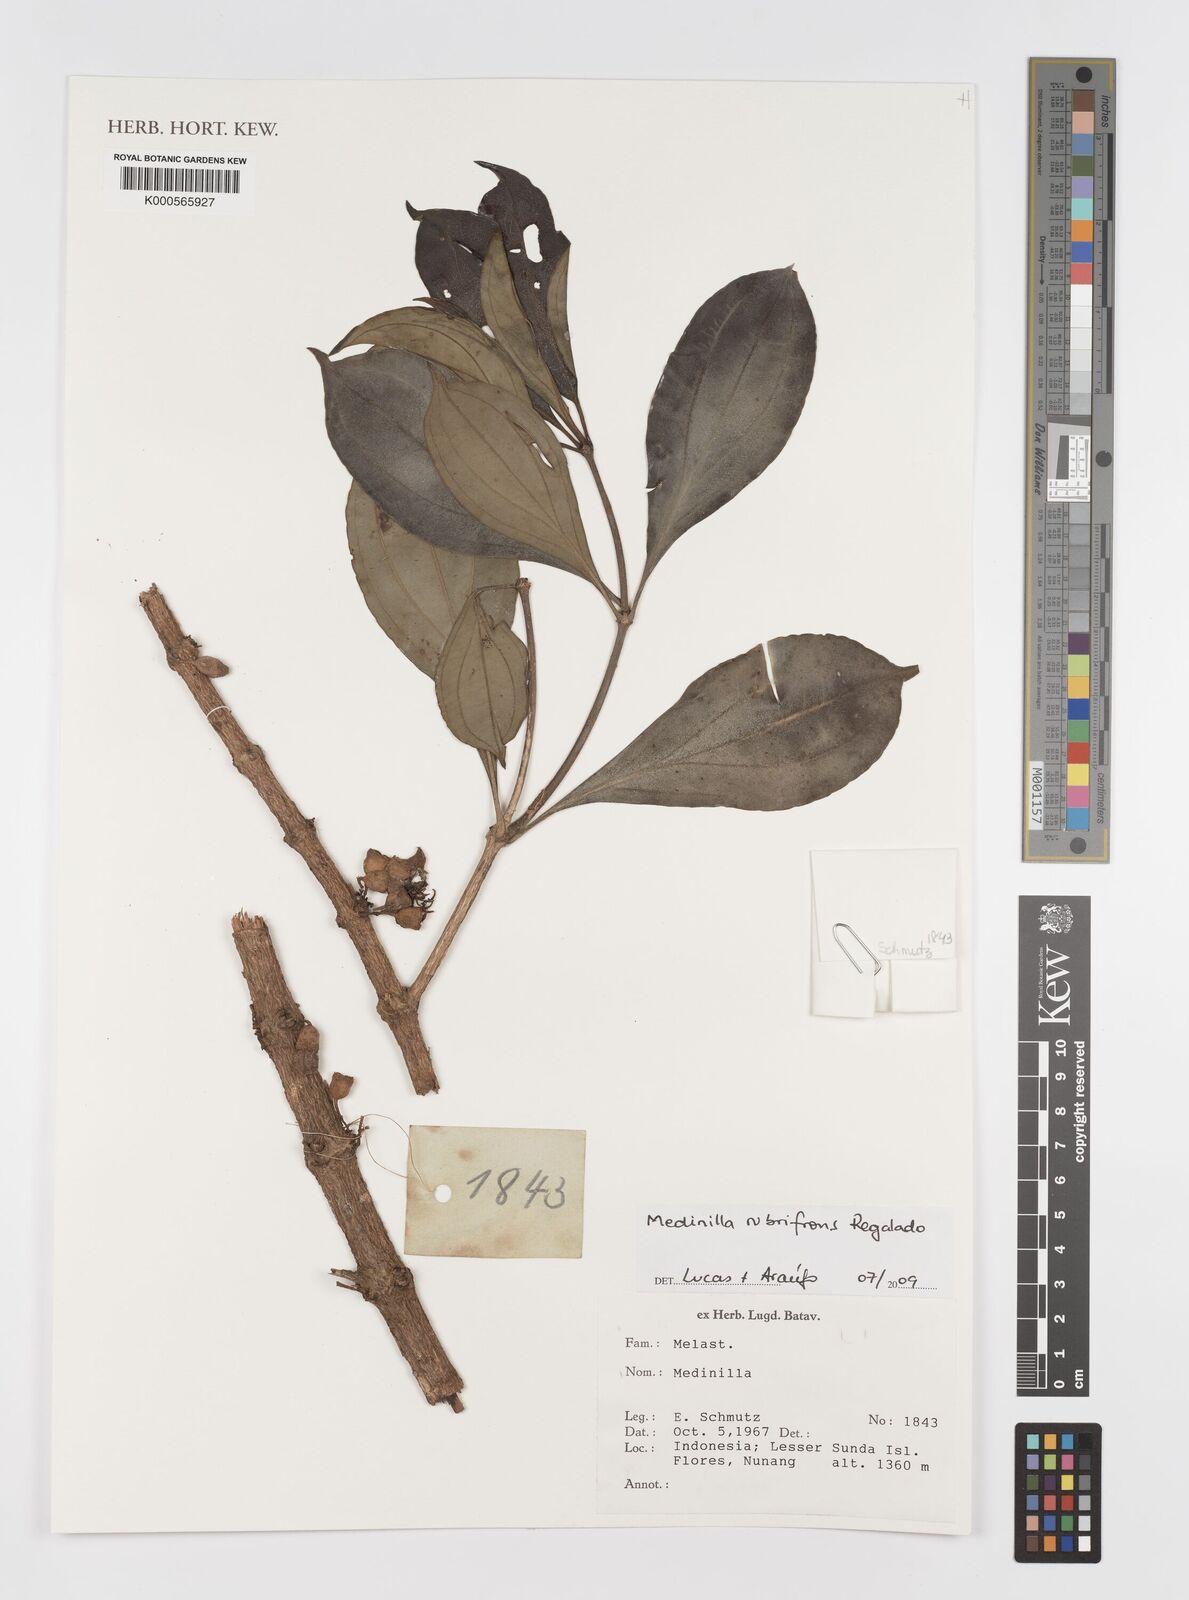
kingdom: Plantae
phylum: Tracheophyta
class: Magnoliopsida
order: Myrtales
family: Melastomataceae
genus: Medinilla
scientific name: Medinilla rubrifrons
